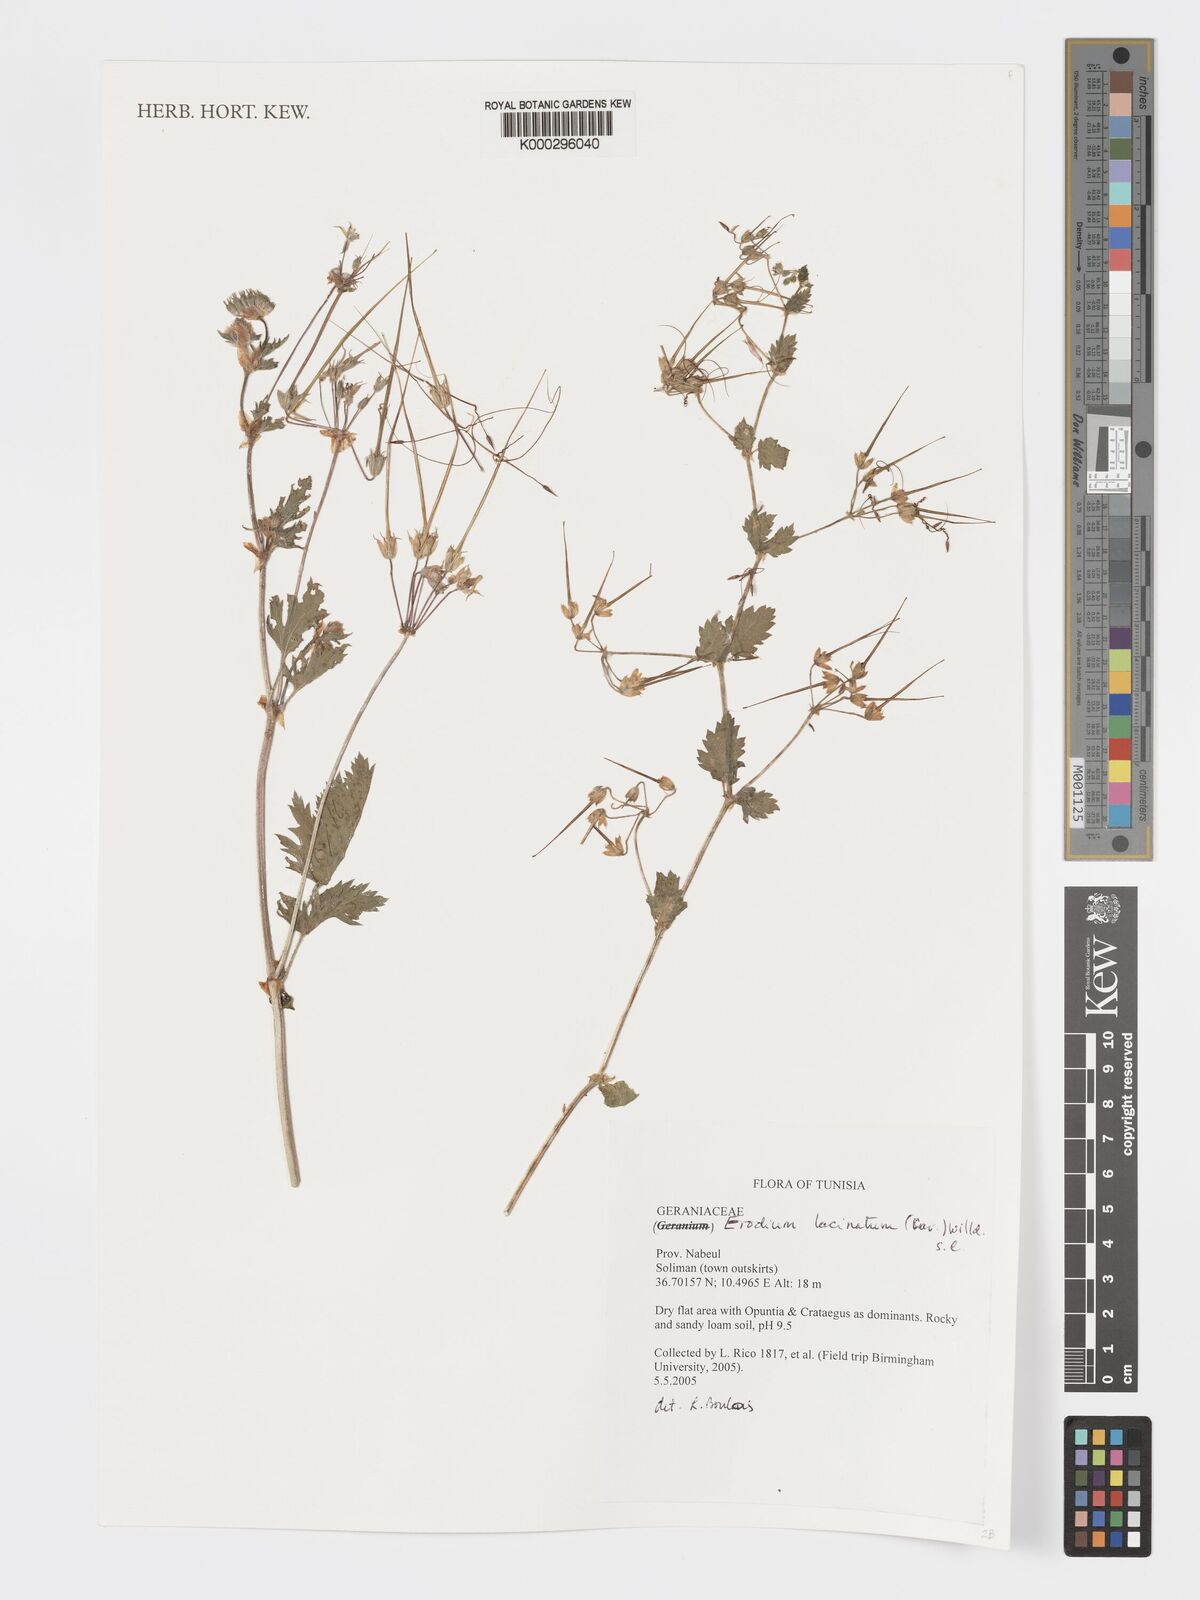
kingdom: Plantae
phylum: Tracheophyta
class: Magnoliopsida
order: Geraniales
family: Geraniaceae
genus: Erodium
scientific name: Erodium
